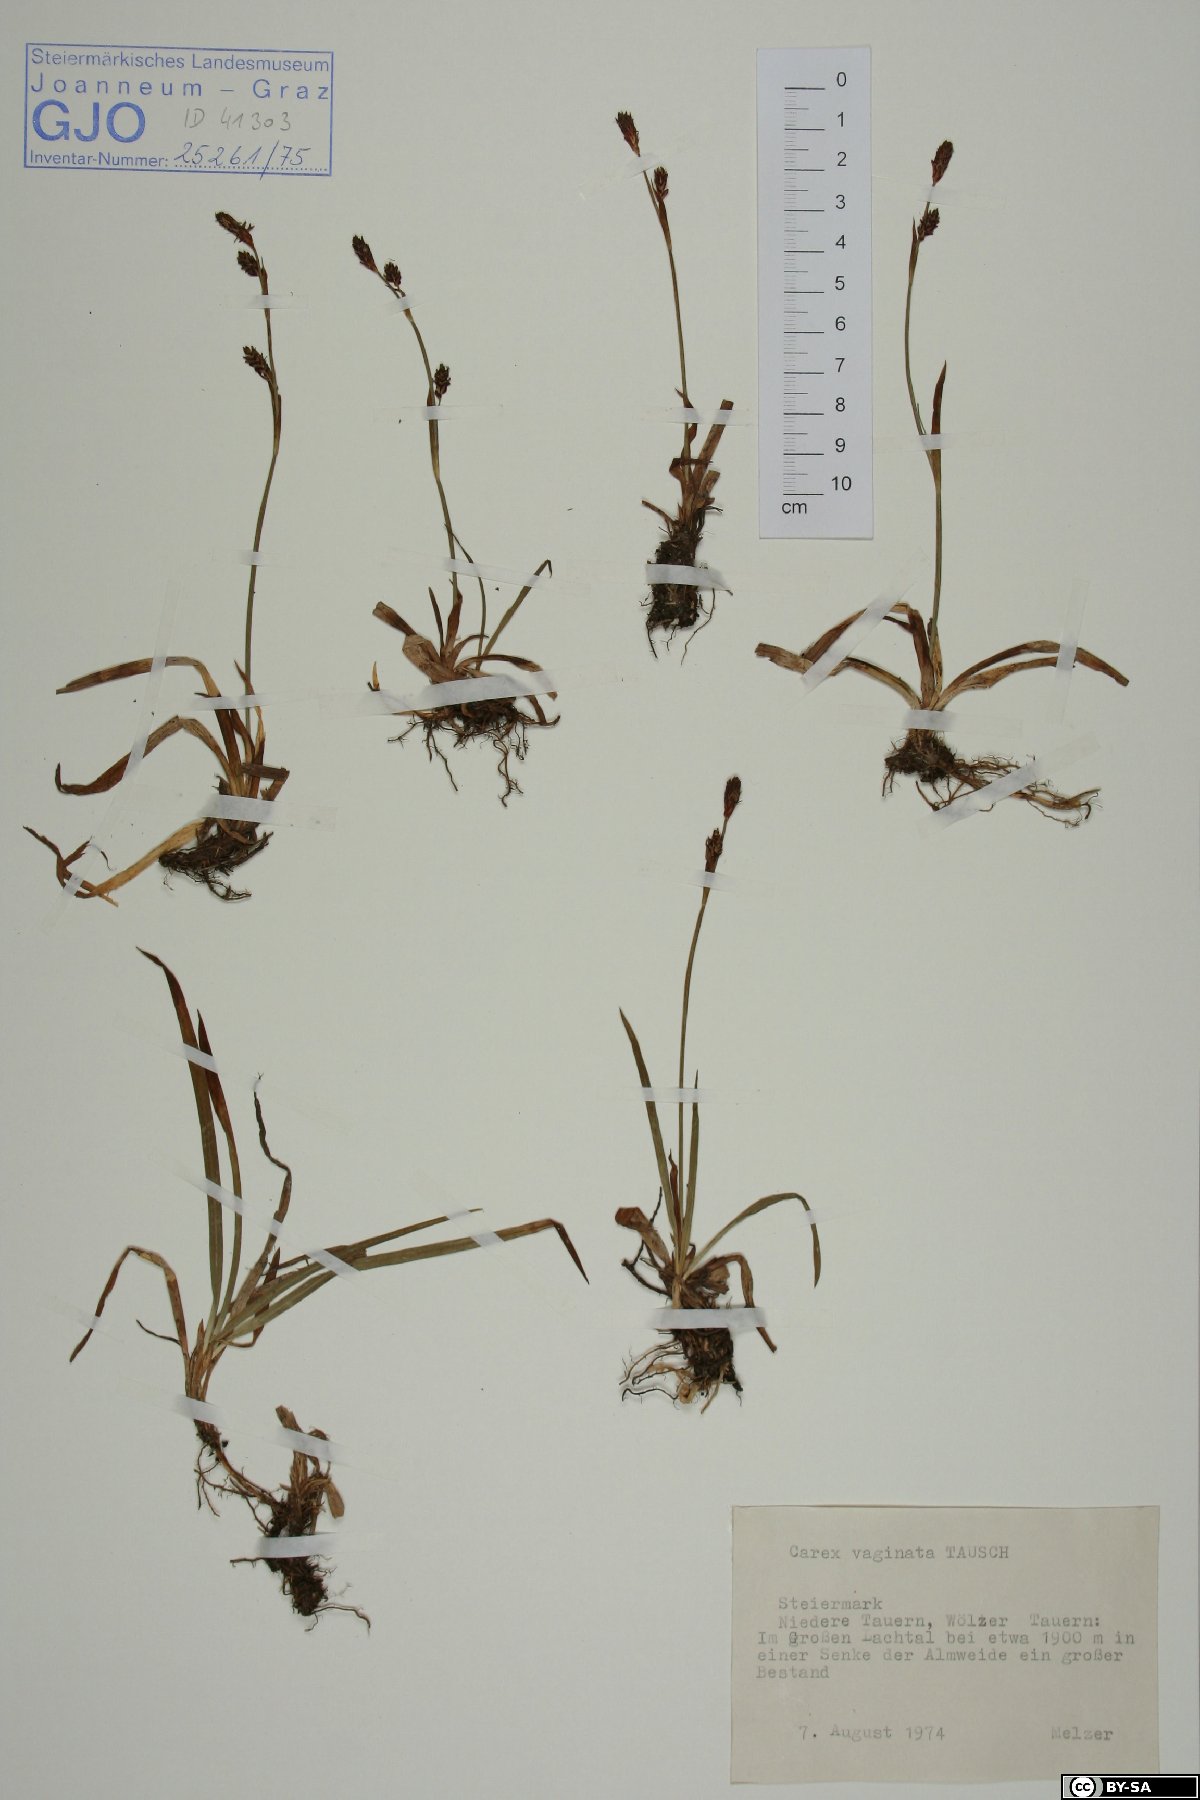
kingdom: Plantae
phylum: Tracheophyta
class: Liliopsida
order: Poales
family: Cyperaceae
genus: Carex
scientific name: Carex vaginata
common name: Sheathed sedge
